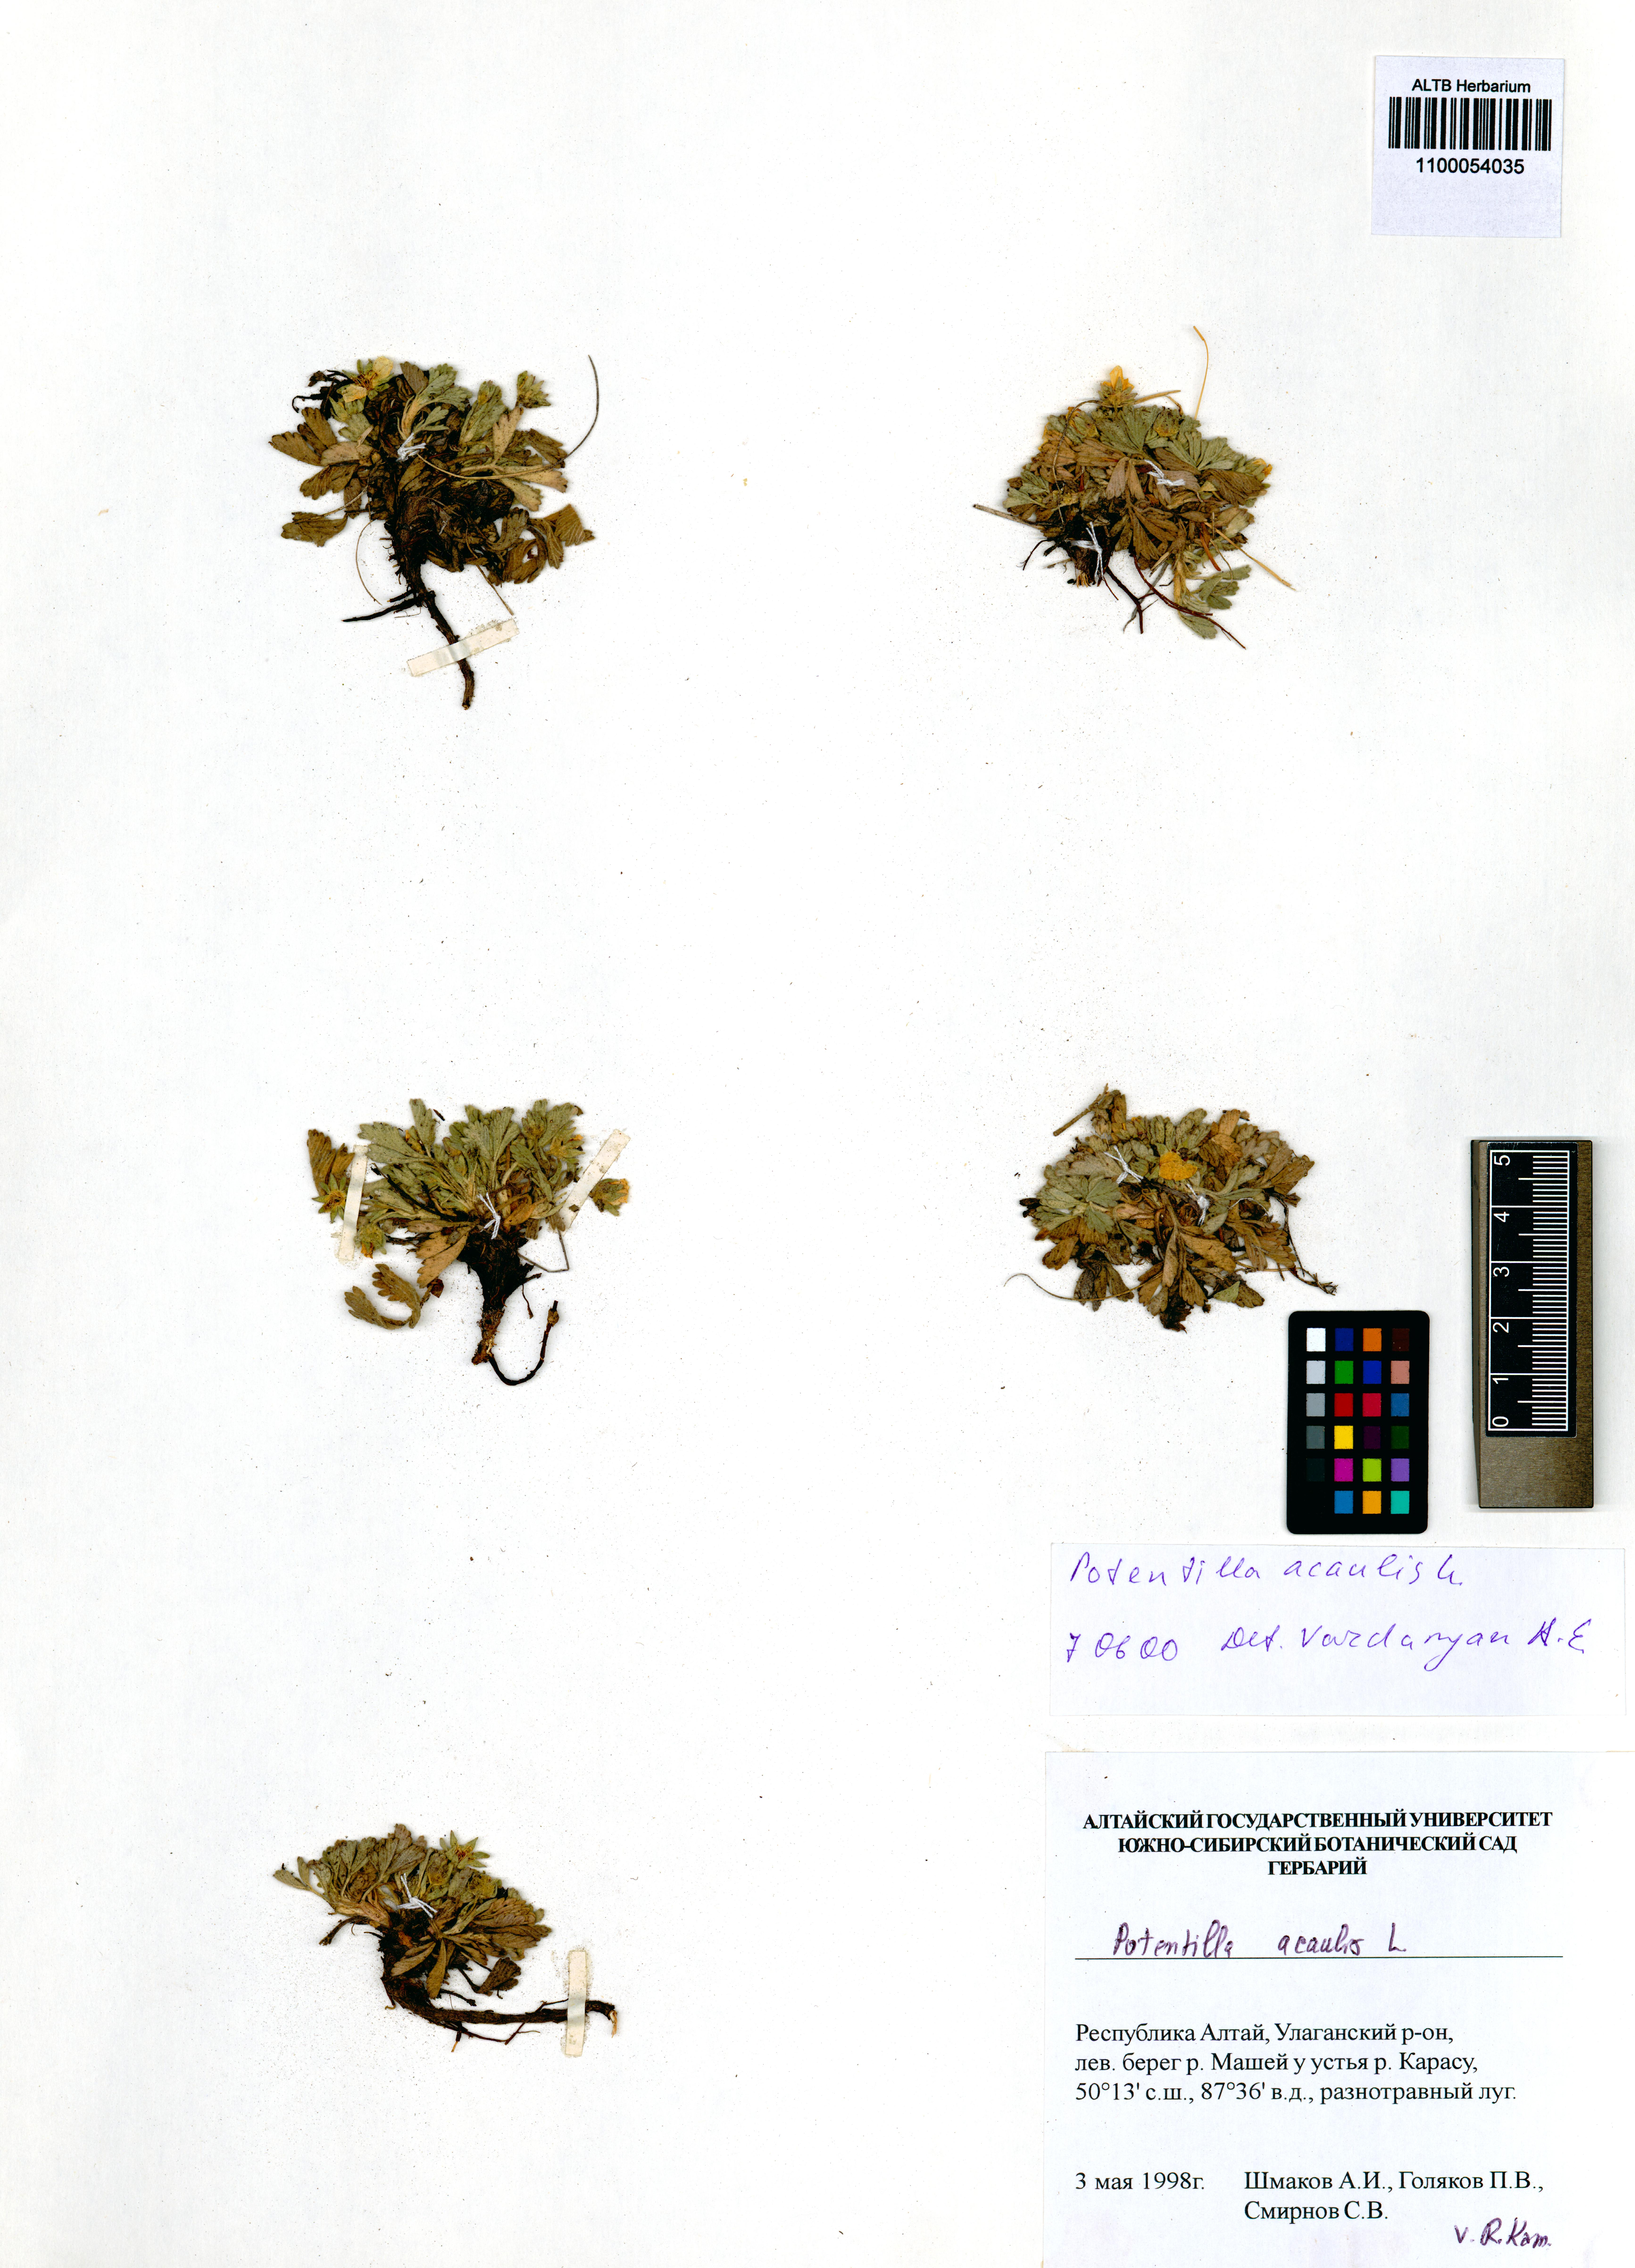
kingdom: Plantae
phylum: Tracheophyta
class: Magnoliopsida
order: Rosales
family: Rosaceae
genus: Potentilla
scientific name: Potentilla acaulis
